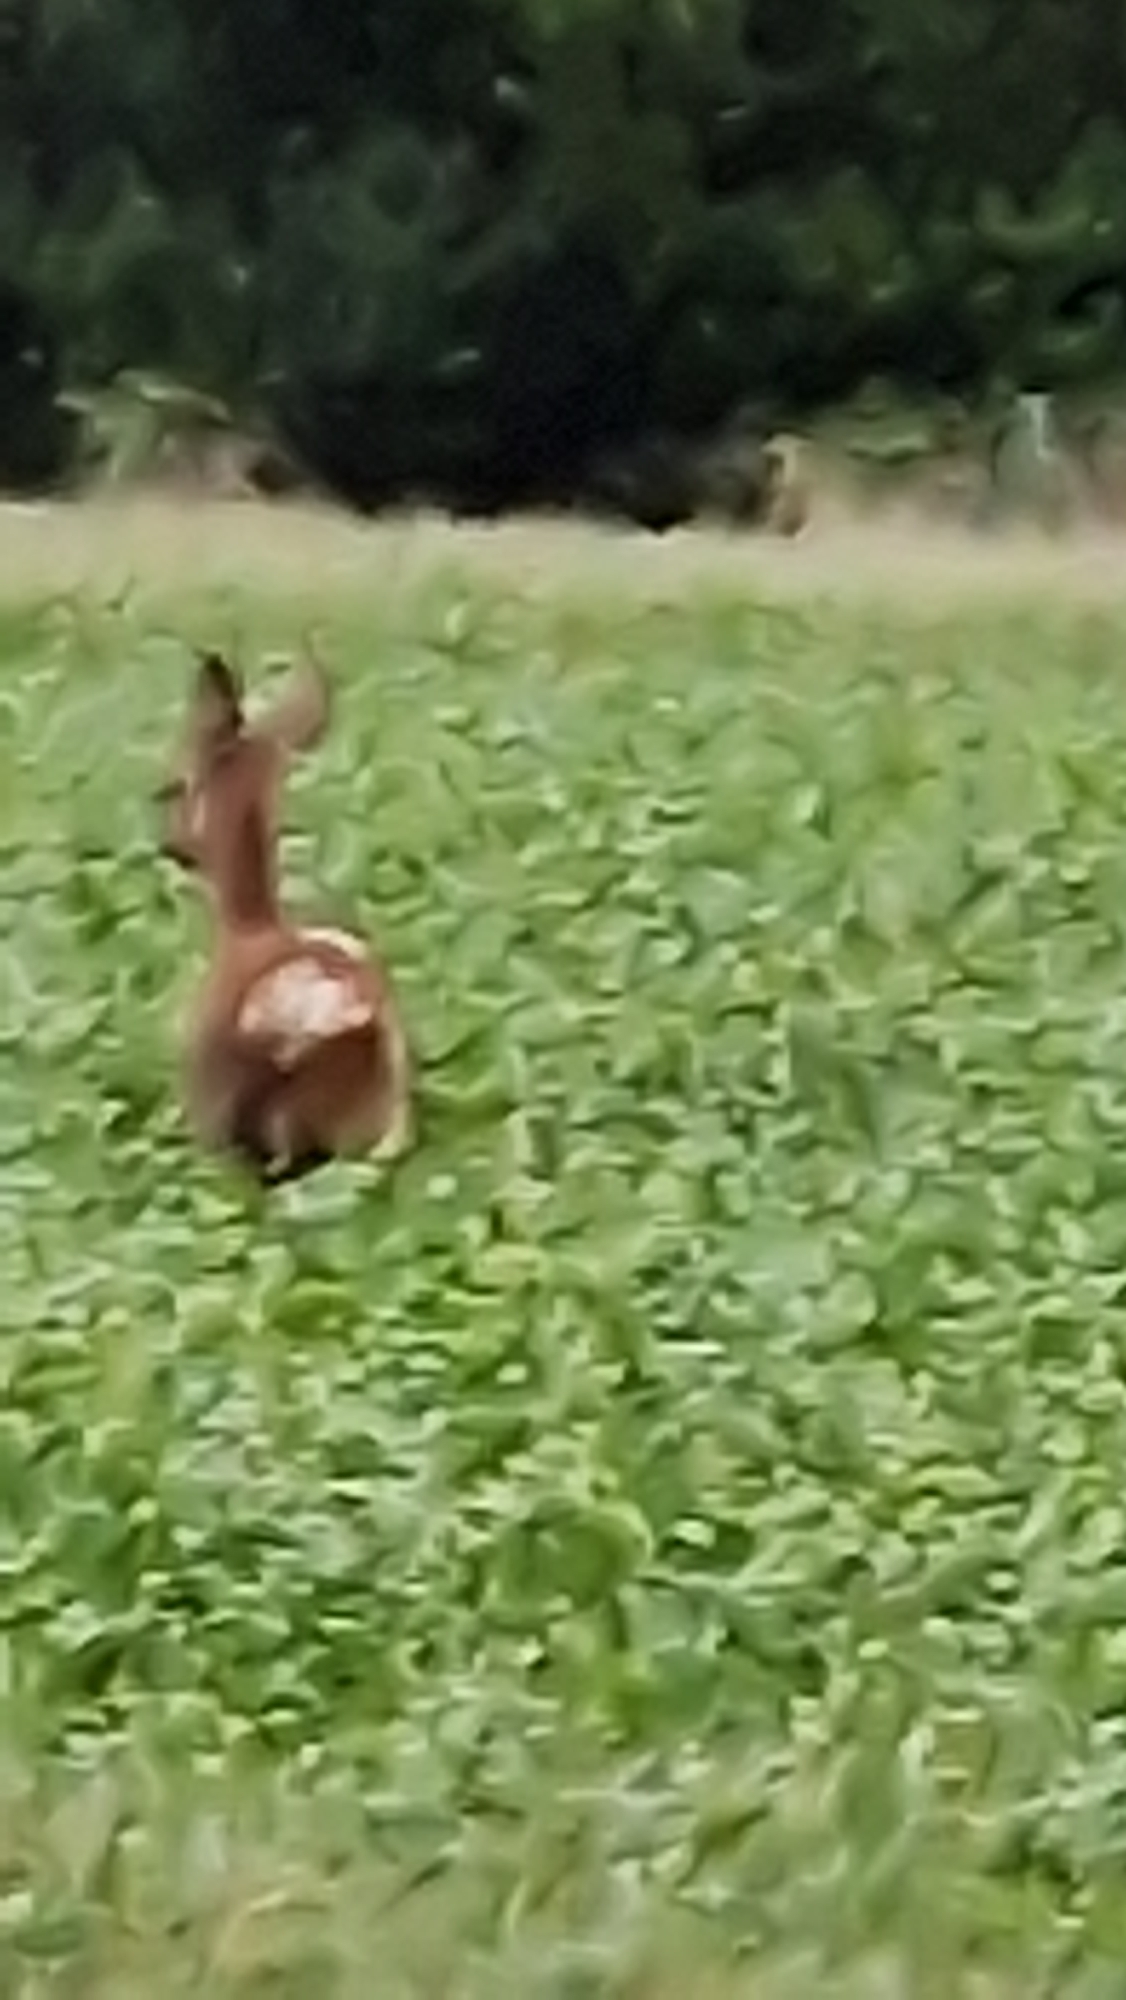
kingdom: Animalia
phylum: Chordata
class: Mammalia
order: Artiodactyla
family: Cervidae
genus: Capreolus
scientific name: Capreolus capreolus
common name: Rådyr
